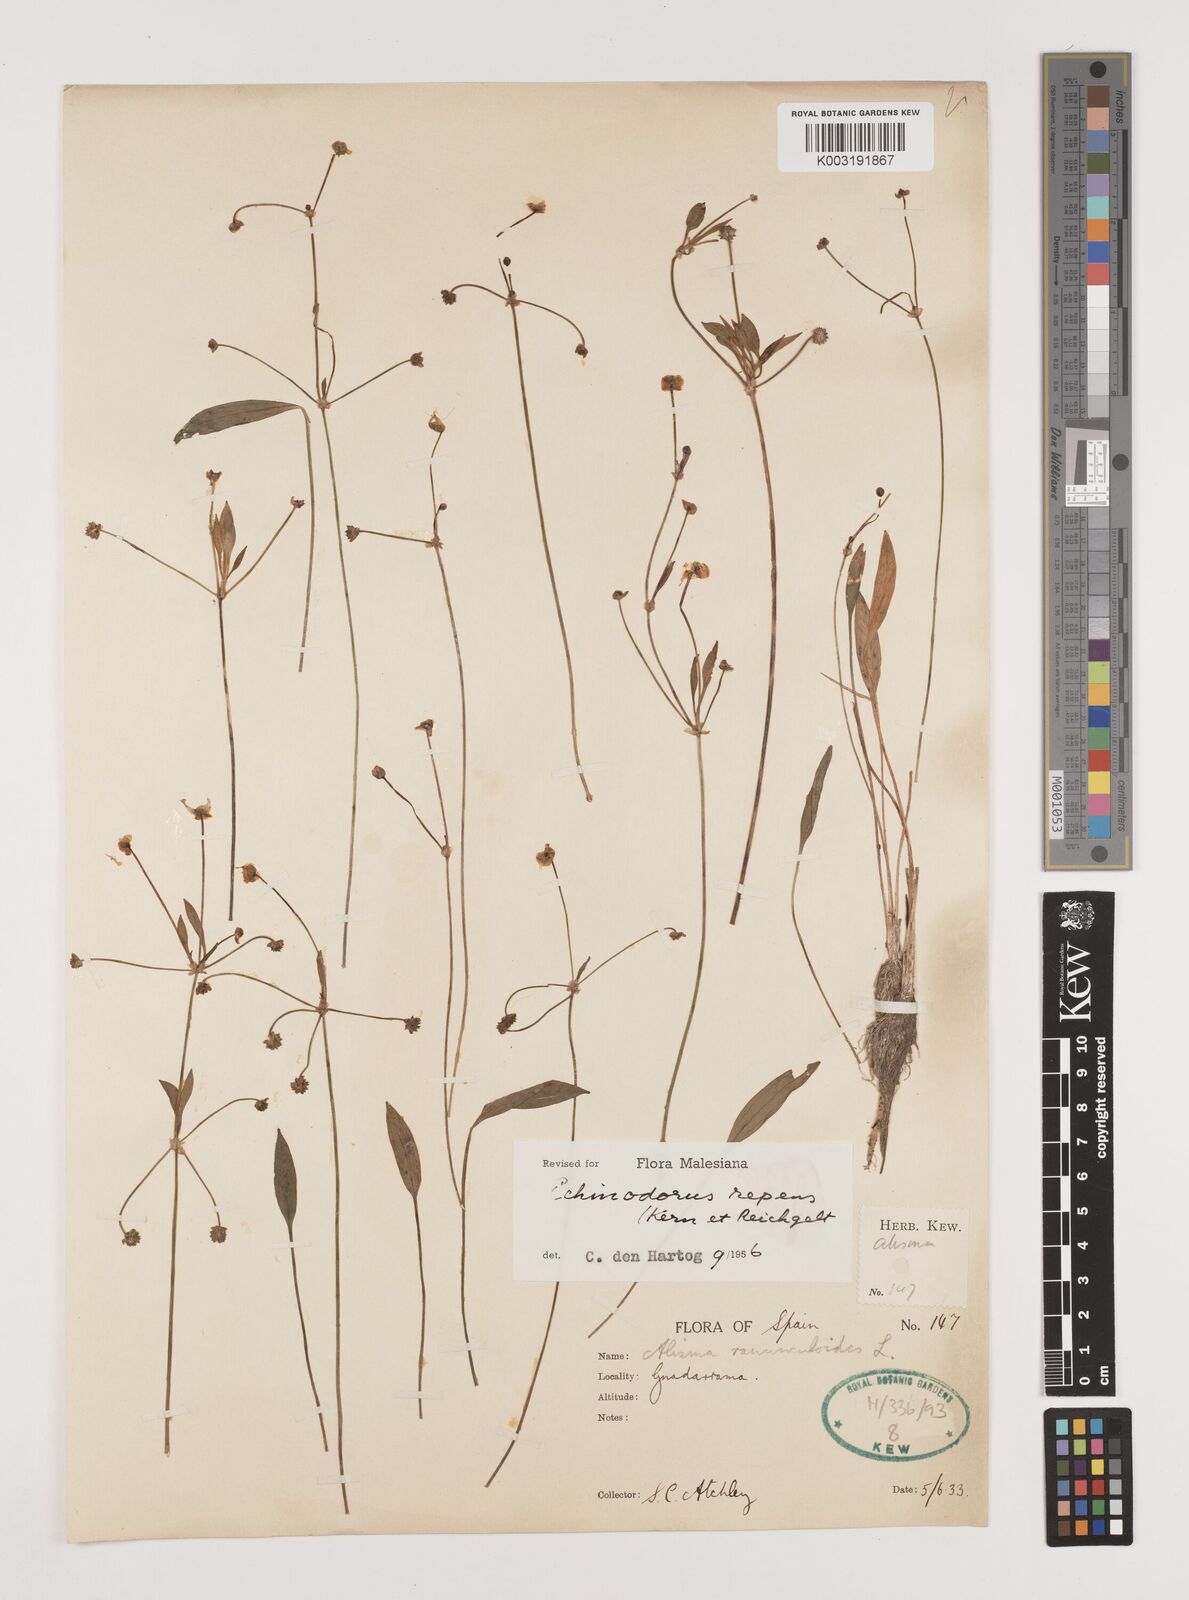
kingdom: Plantae
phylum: Tracheophyta
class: Liliopsida
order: Alismatales
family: Alismataceae
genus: Baldellia
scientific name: Baldellia repens
